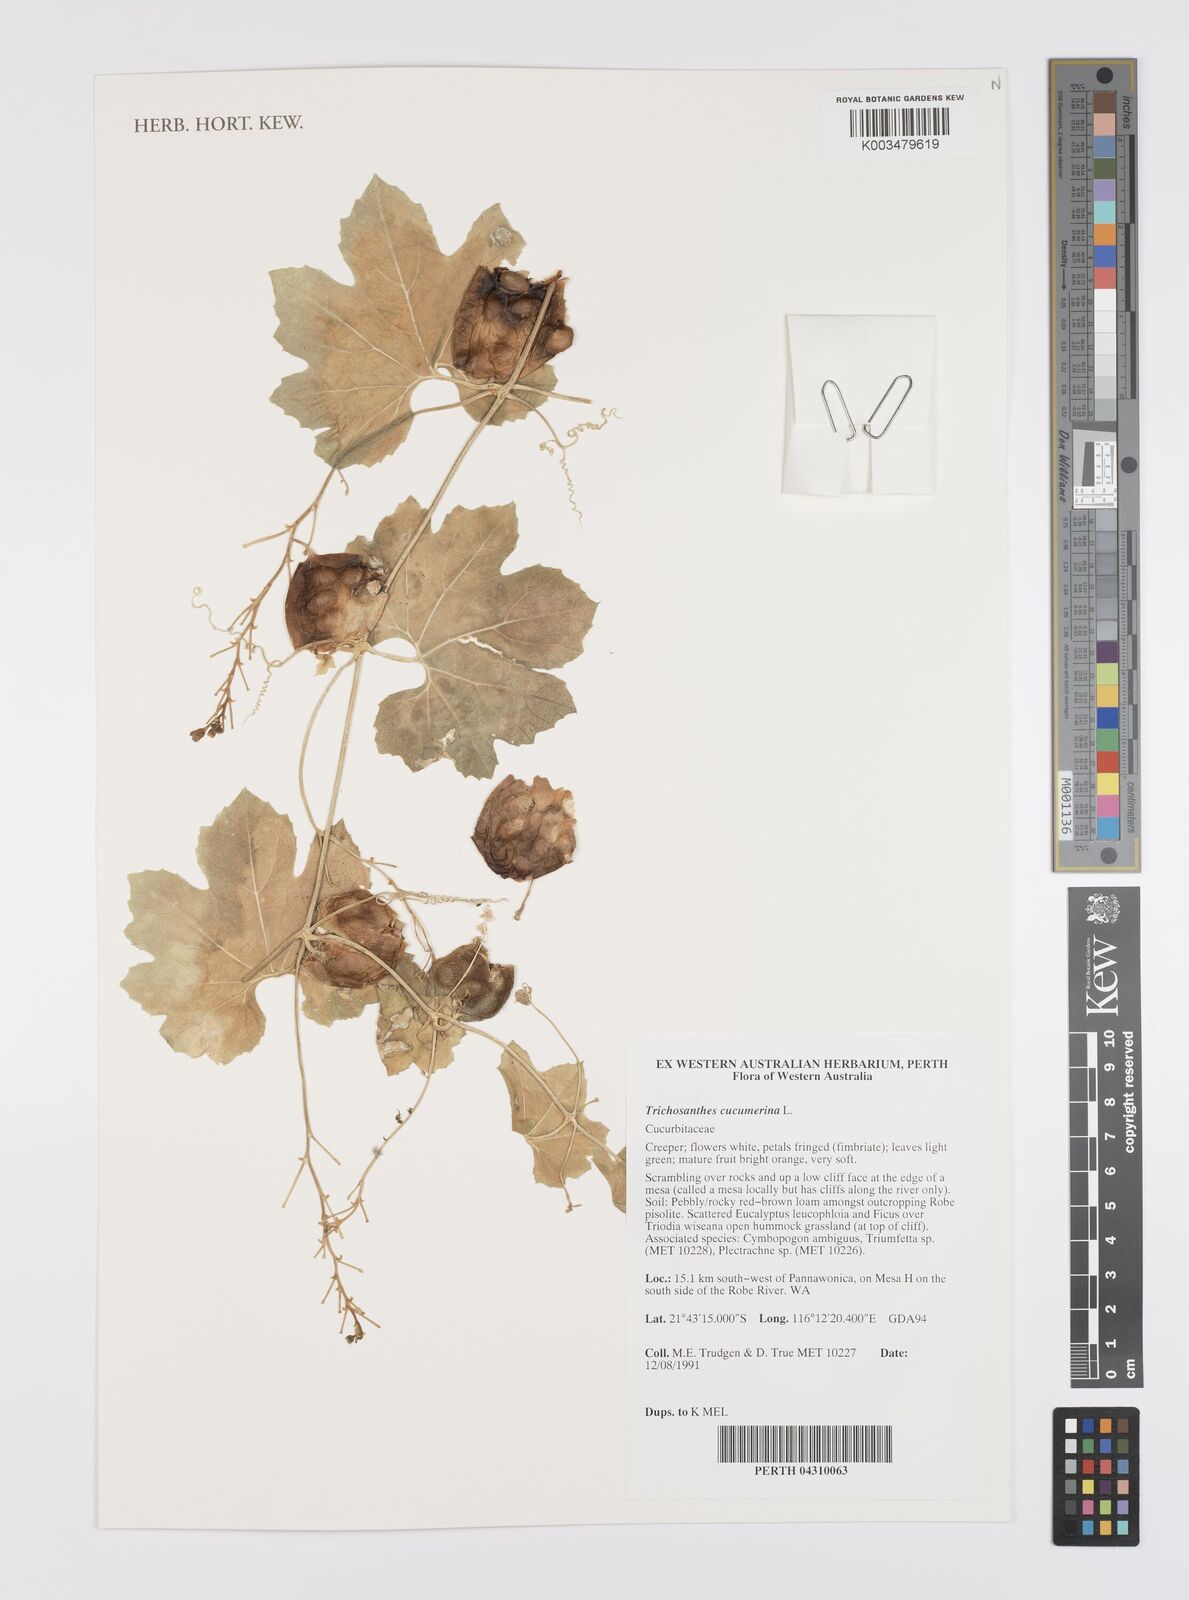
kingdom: Plantae
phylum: Tracheophyta
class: Magnoliopsida
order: Cucurbitales
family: Cucurbitaceae
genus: Trichosanthes
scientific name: Trichosanthes cucumerina
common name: Snakegourd
